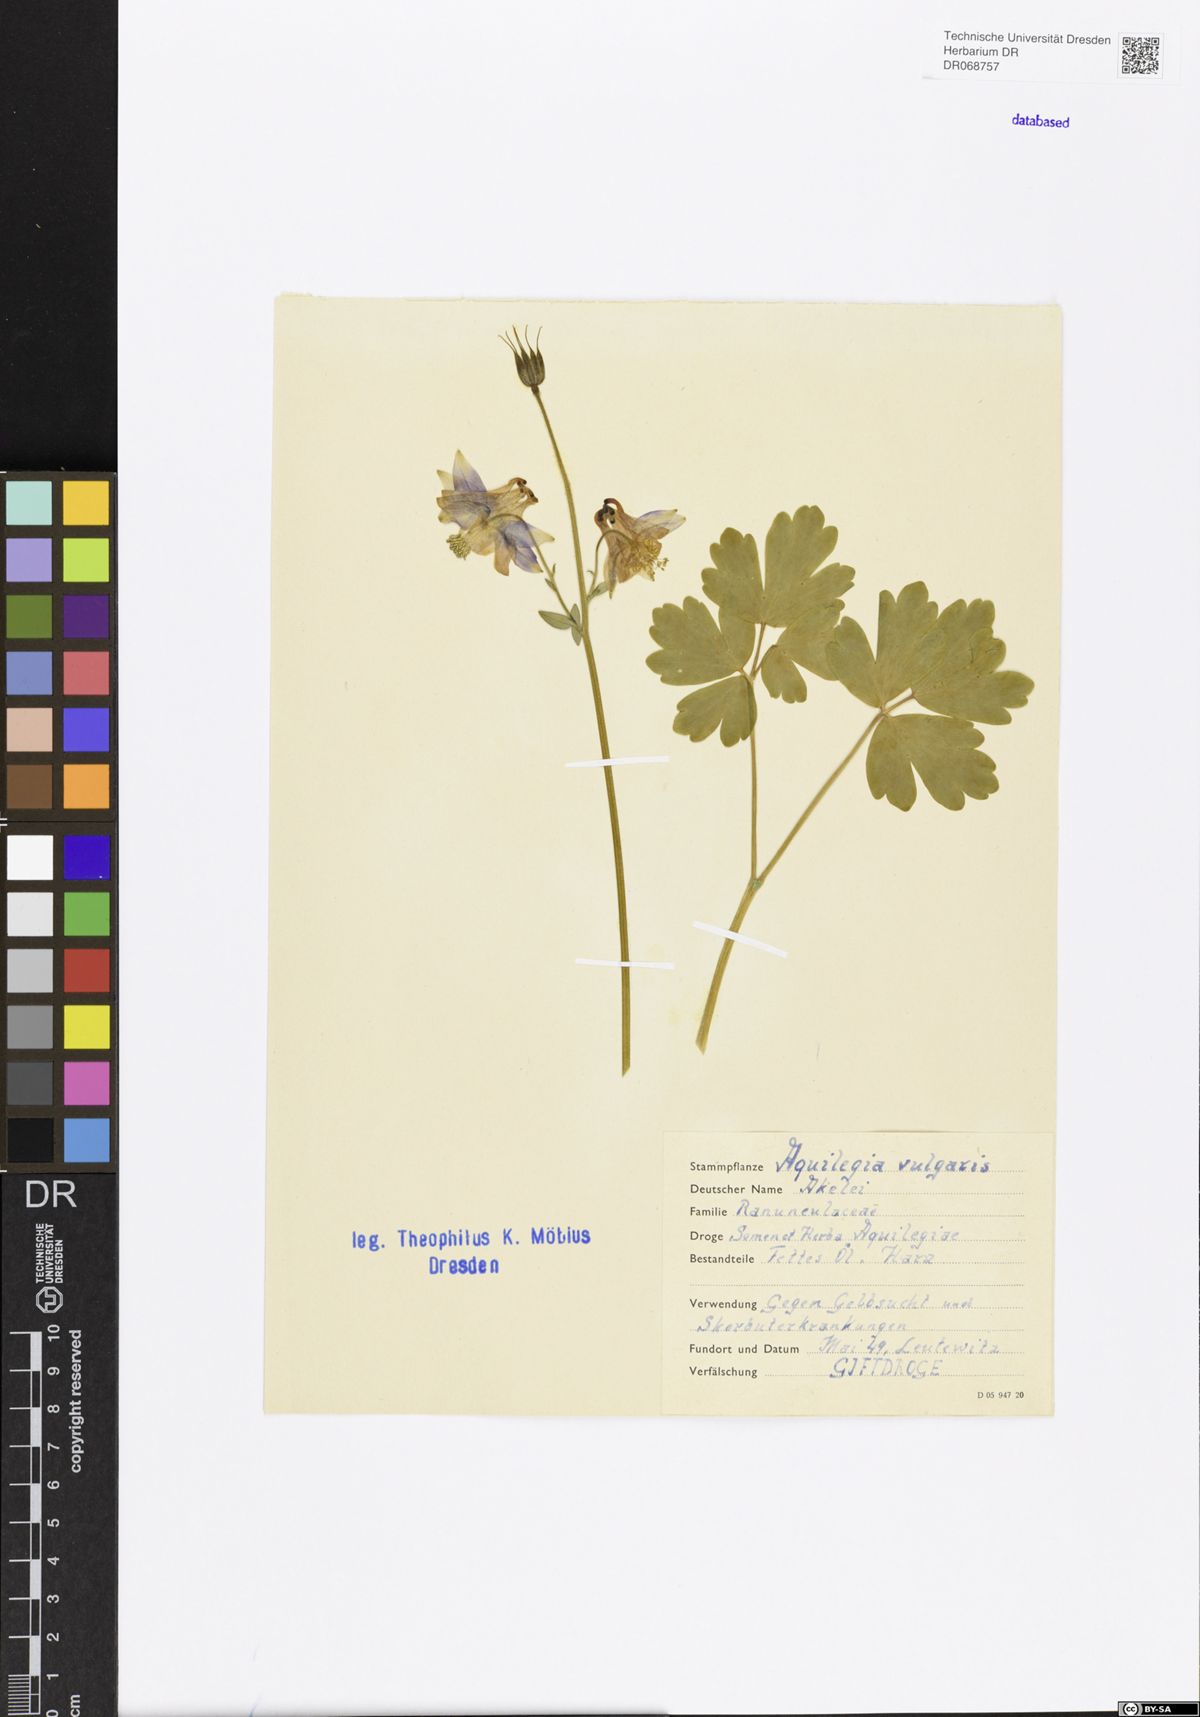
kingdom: Plantae
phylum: Tracheophyta
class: Magnoliopsida
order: Ranunculales
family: Ranunculaceae
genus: Aquilegia
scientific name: Aquilegia vulgaris
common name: Columbine
